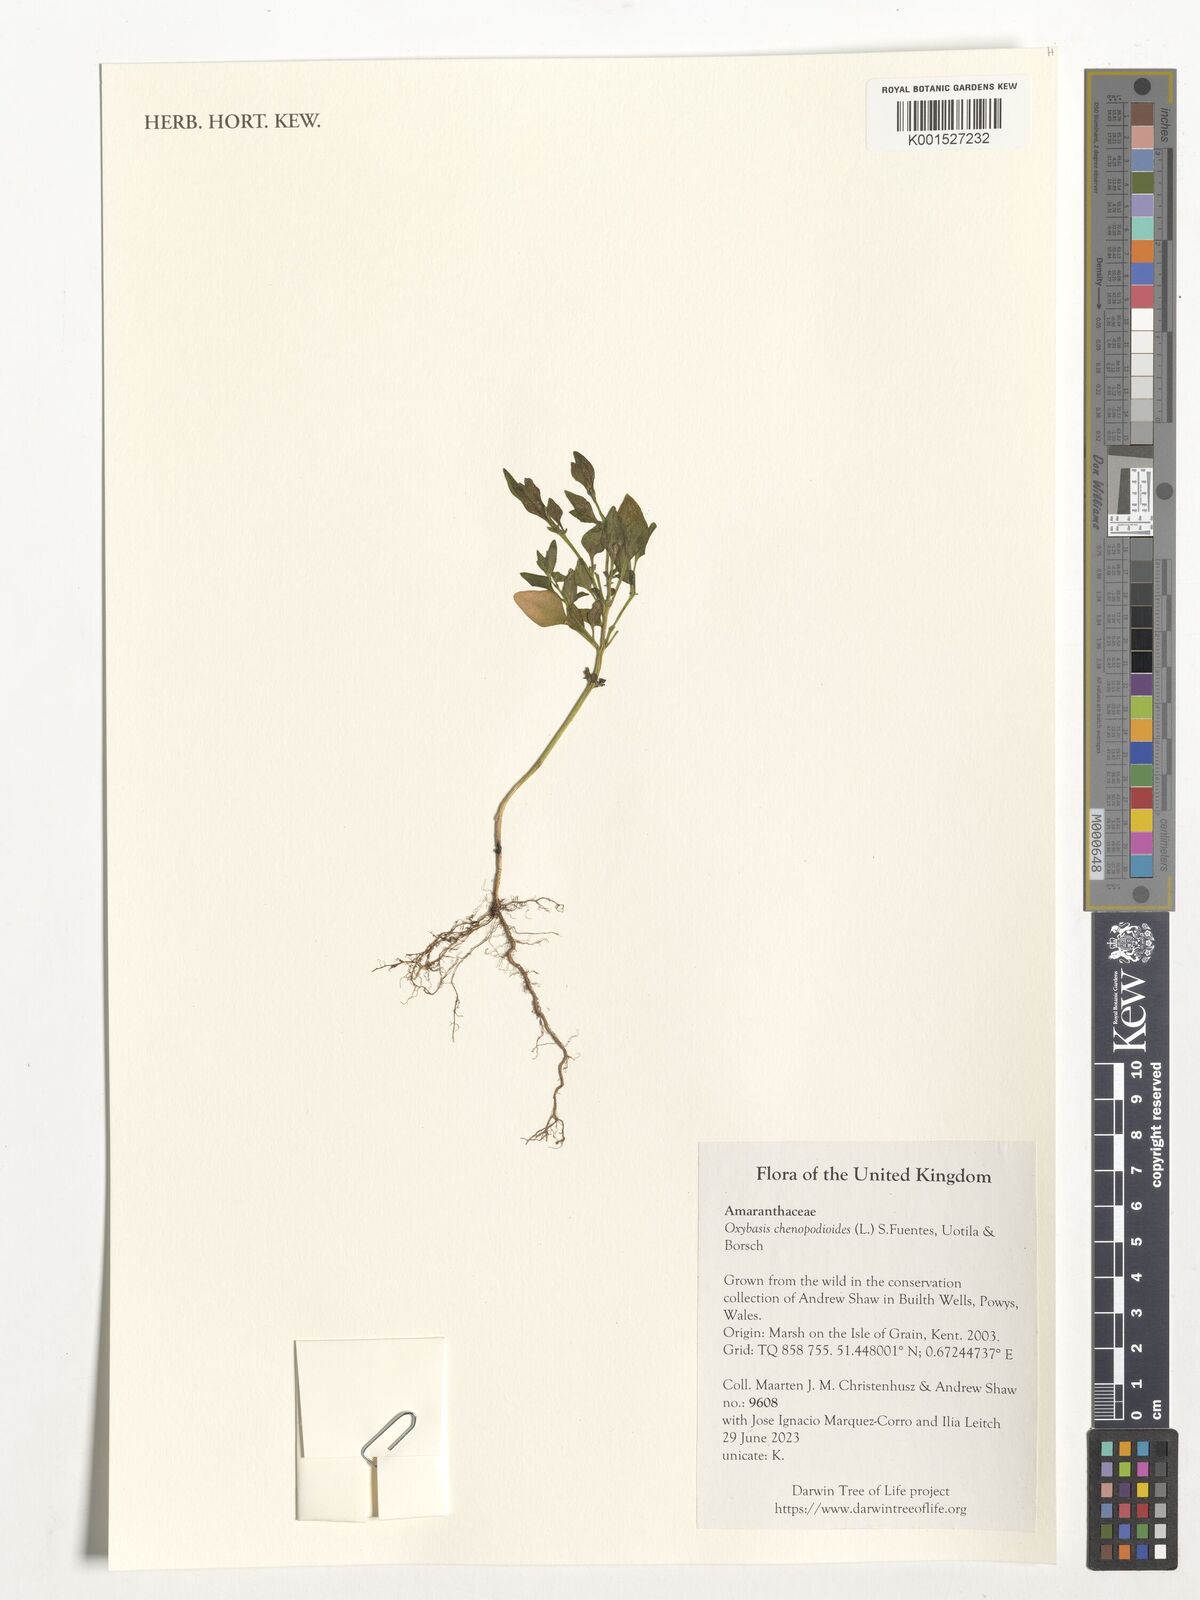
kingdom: Plantae
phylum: Tracheophyta
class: Magnoliopsida
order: Caryophyllales
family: Amaranthaceae
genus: Oxybasis
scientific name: Oxybasis chenopodioides
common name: Saltmarsh goosefoot
